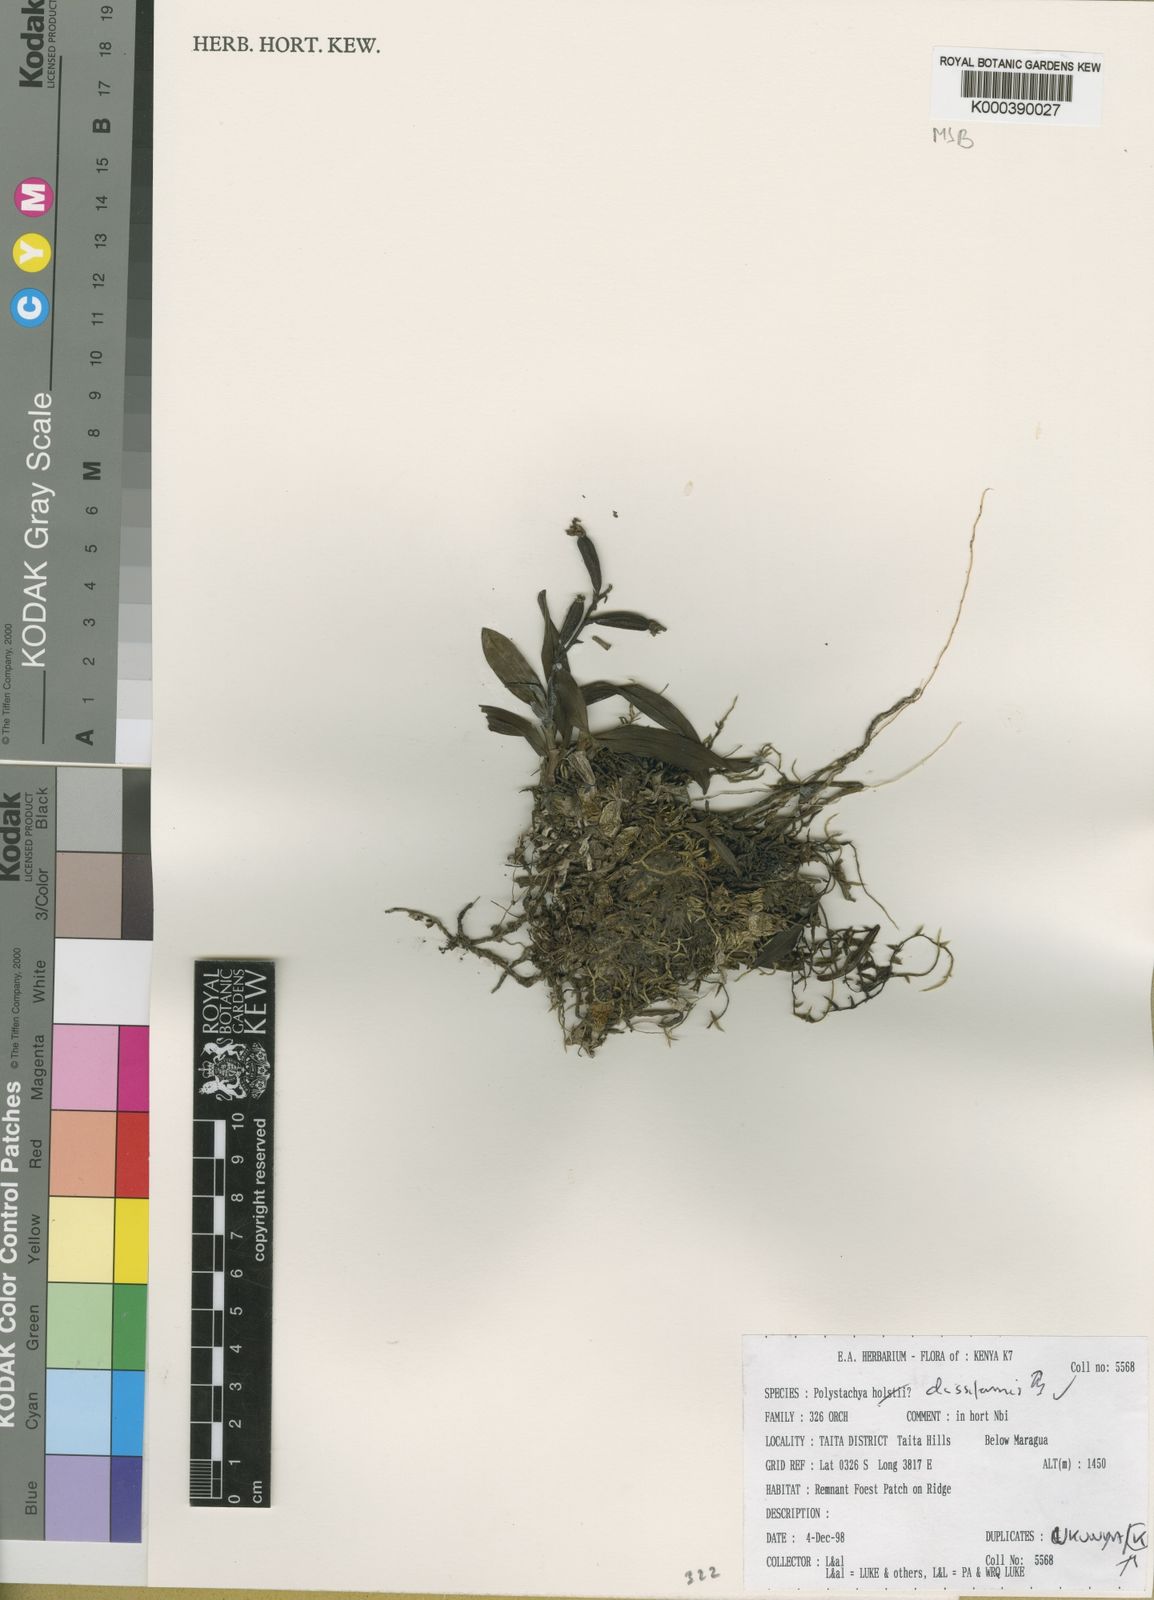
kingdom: Plantae
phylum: Tracheophyta
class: Liliopsida
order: Asparagales
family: Orchidaceae
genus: Polystachya
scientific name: Polystachya disiformis
